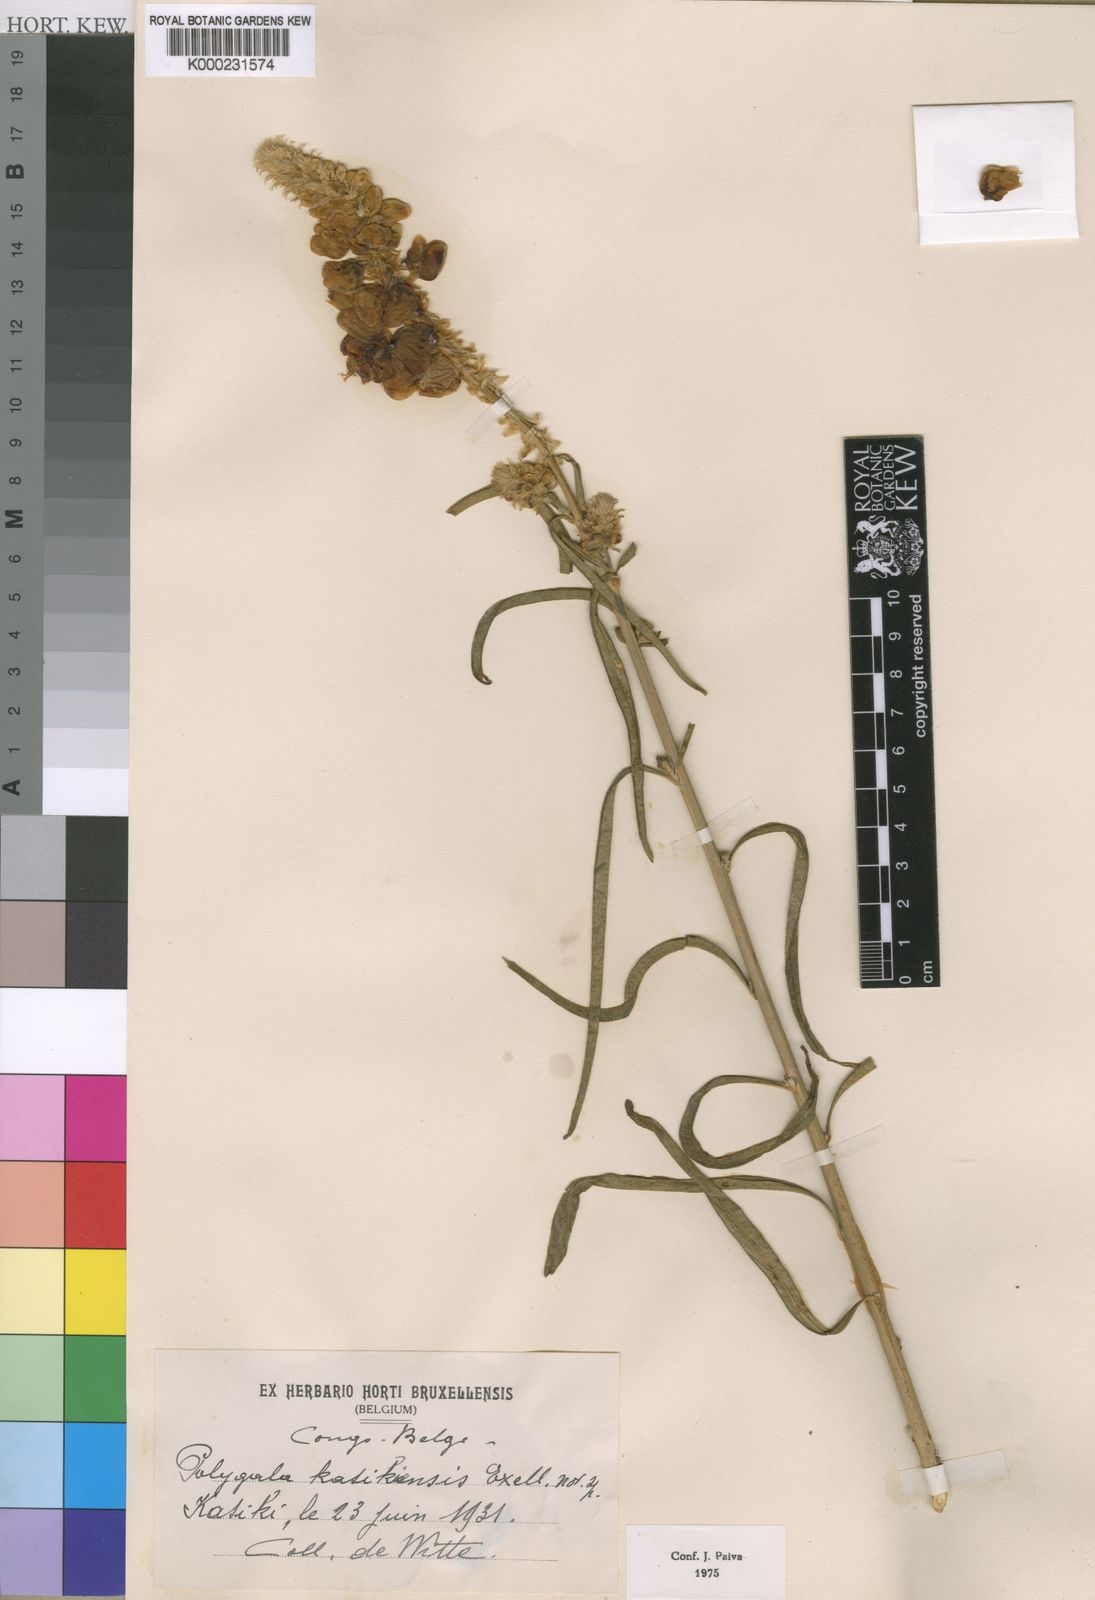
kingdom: Plantae
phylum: Tracheophyta
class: Magnoliopsida
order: Fabales
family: Polygalaceae
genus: Polygala
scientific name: Polygala kasikensis
